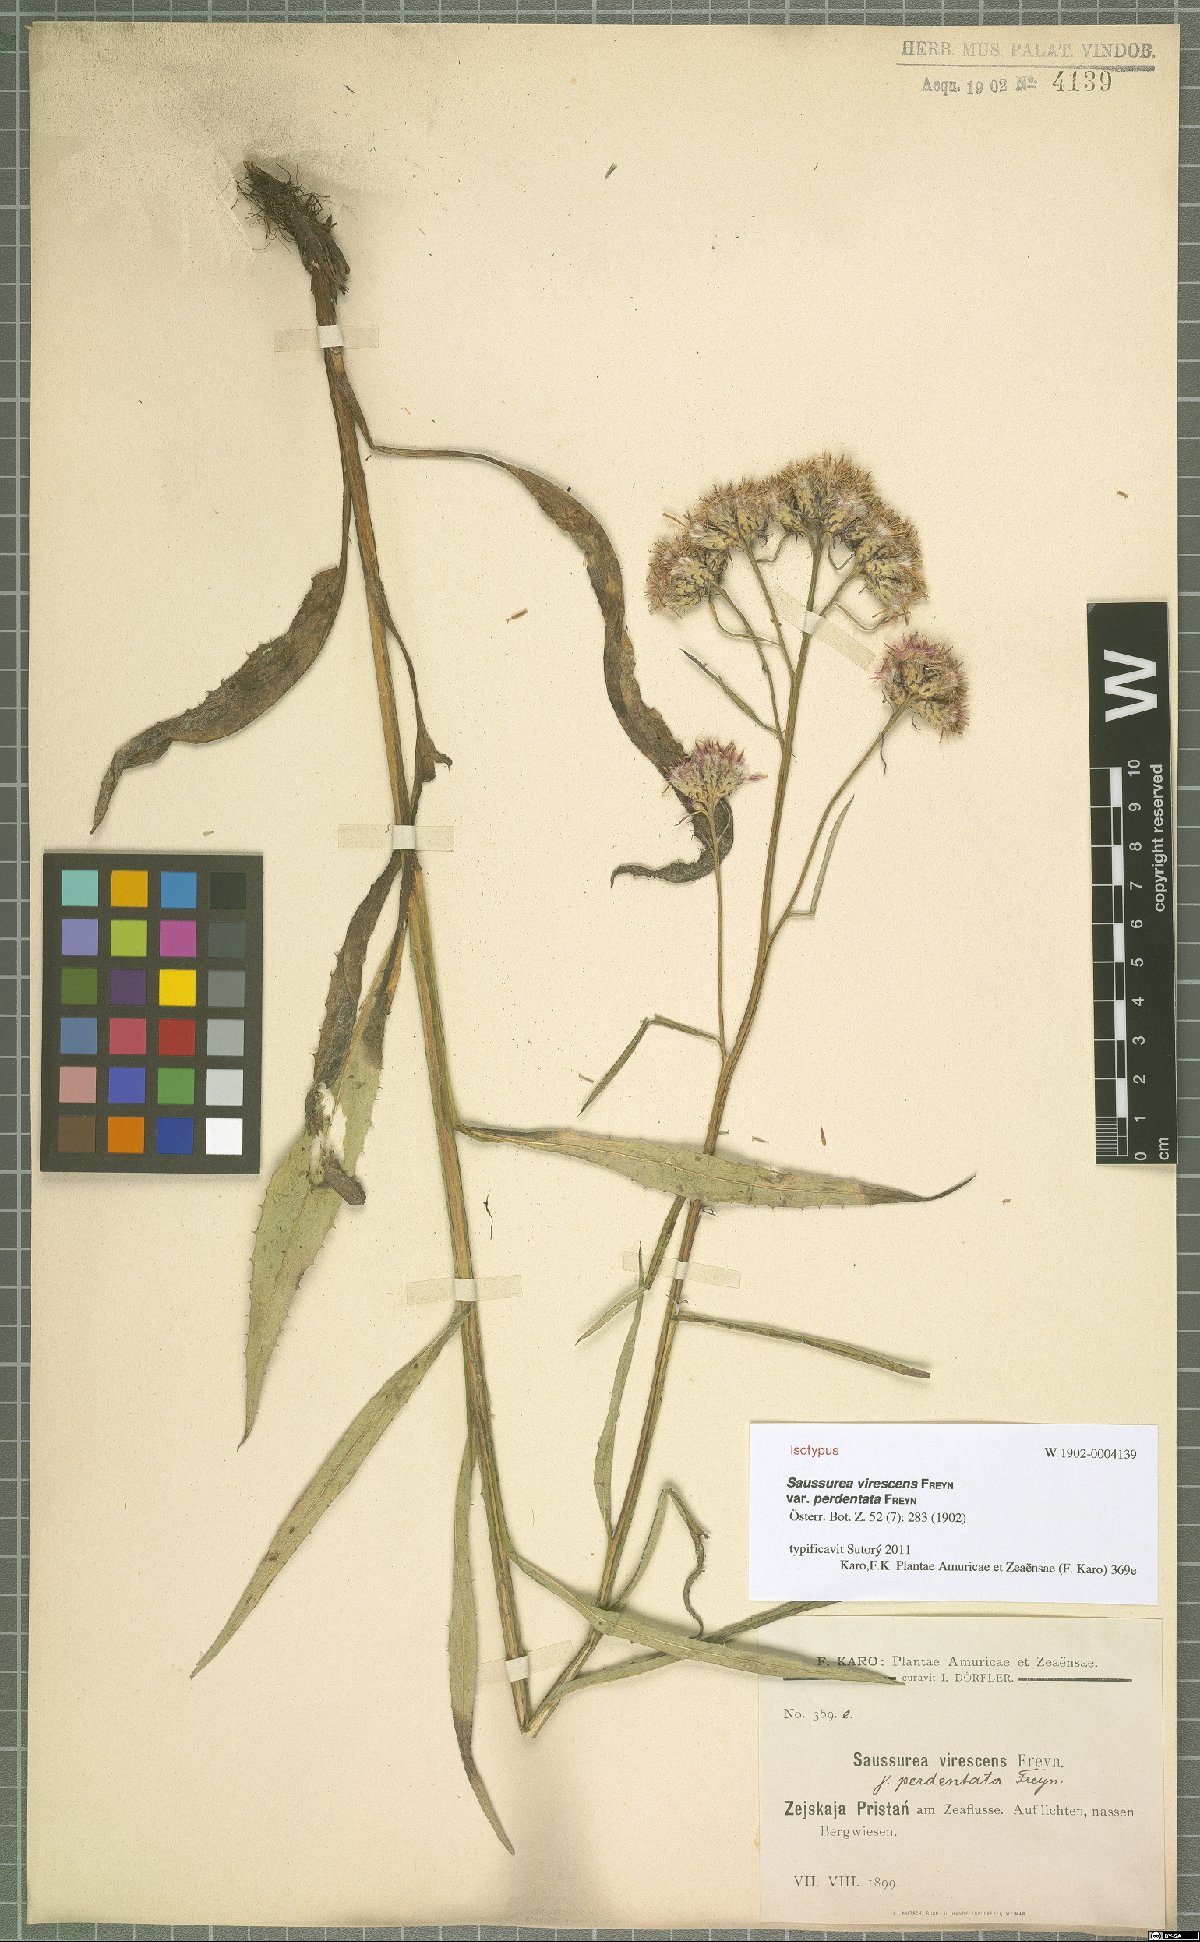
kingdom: Plantae
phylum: Tracheophyta
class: Magnoliopsida
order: Asterales
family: Asteraceae
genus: Saussurea
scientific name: Saussurea virescens
